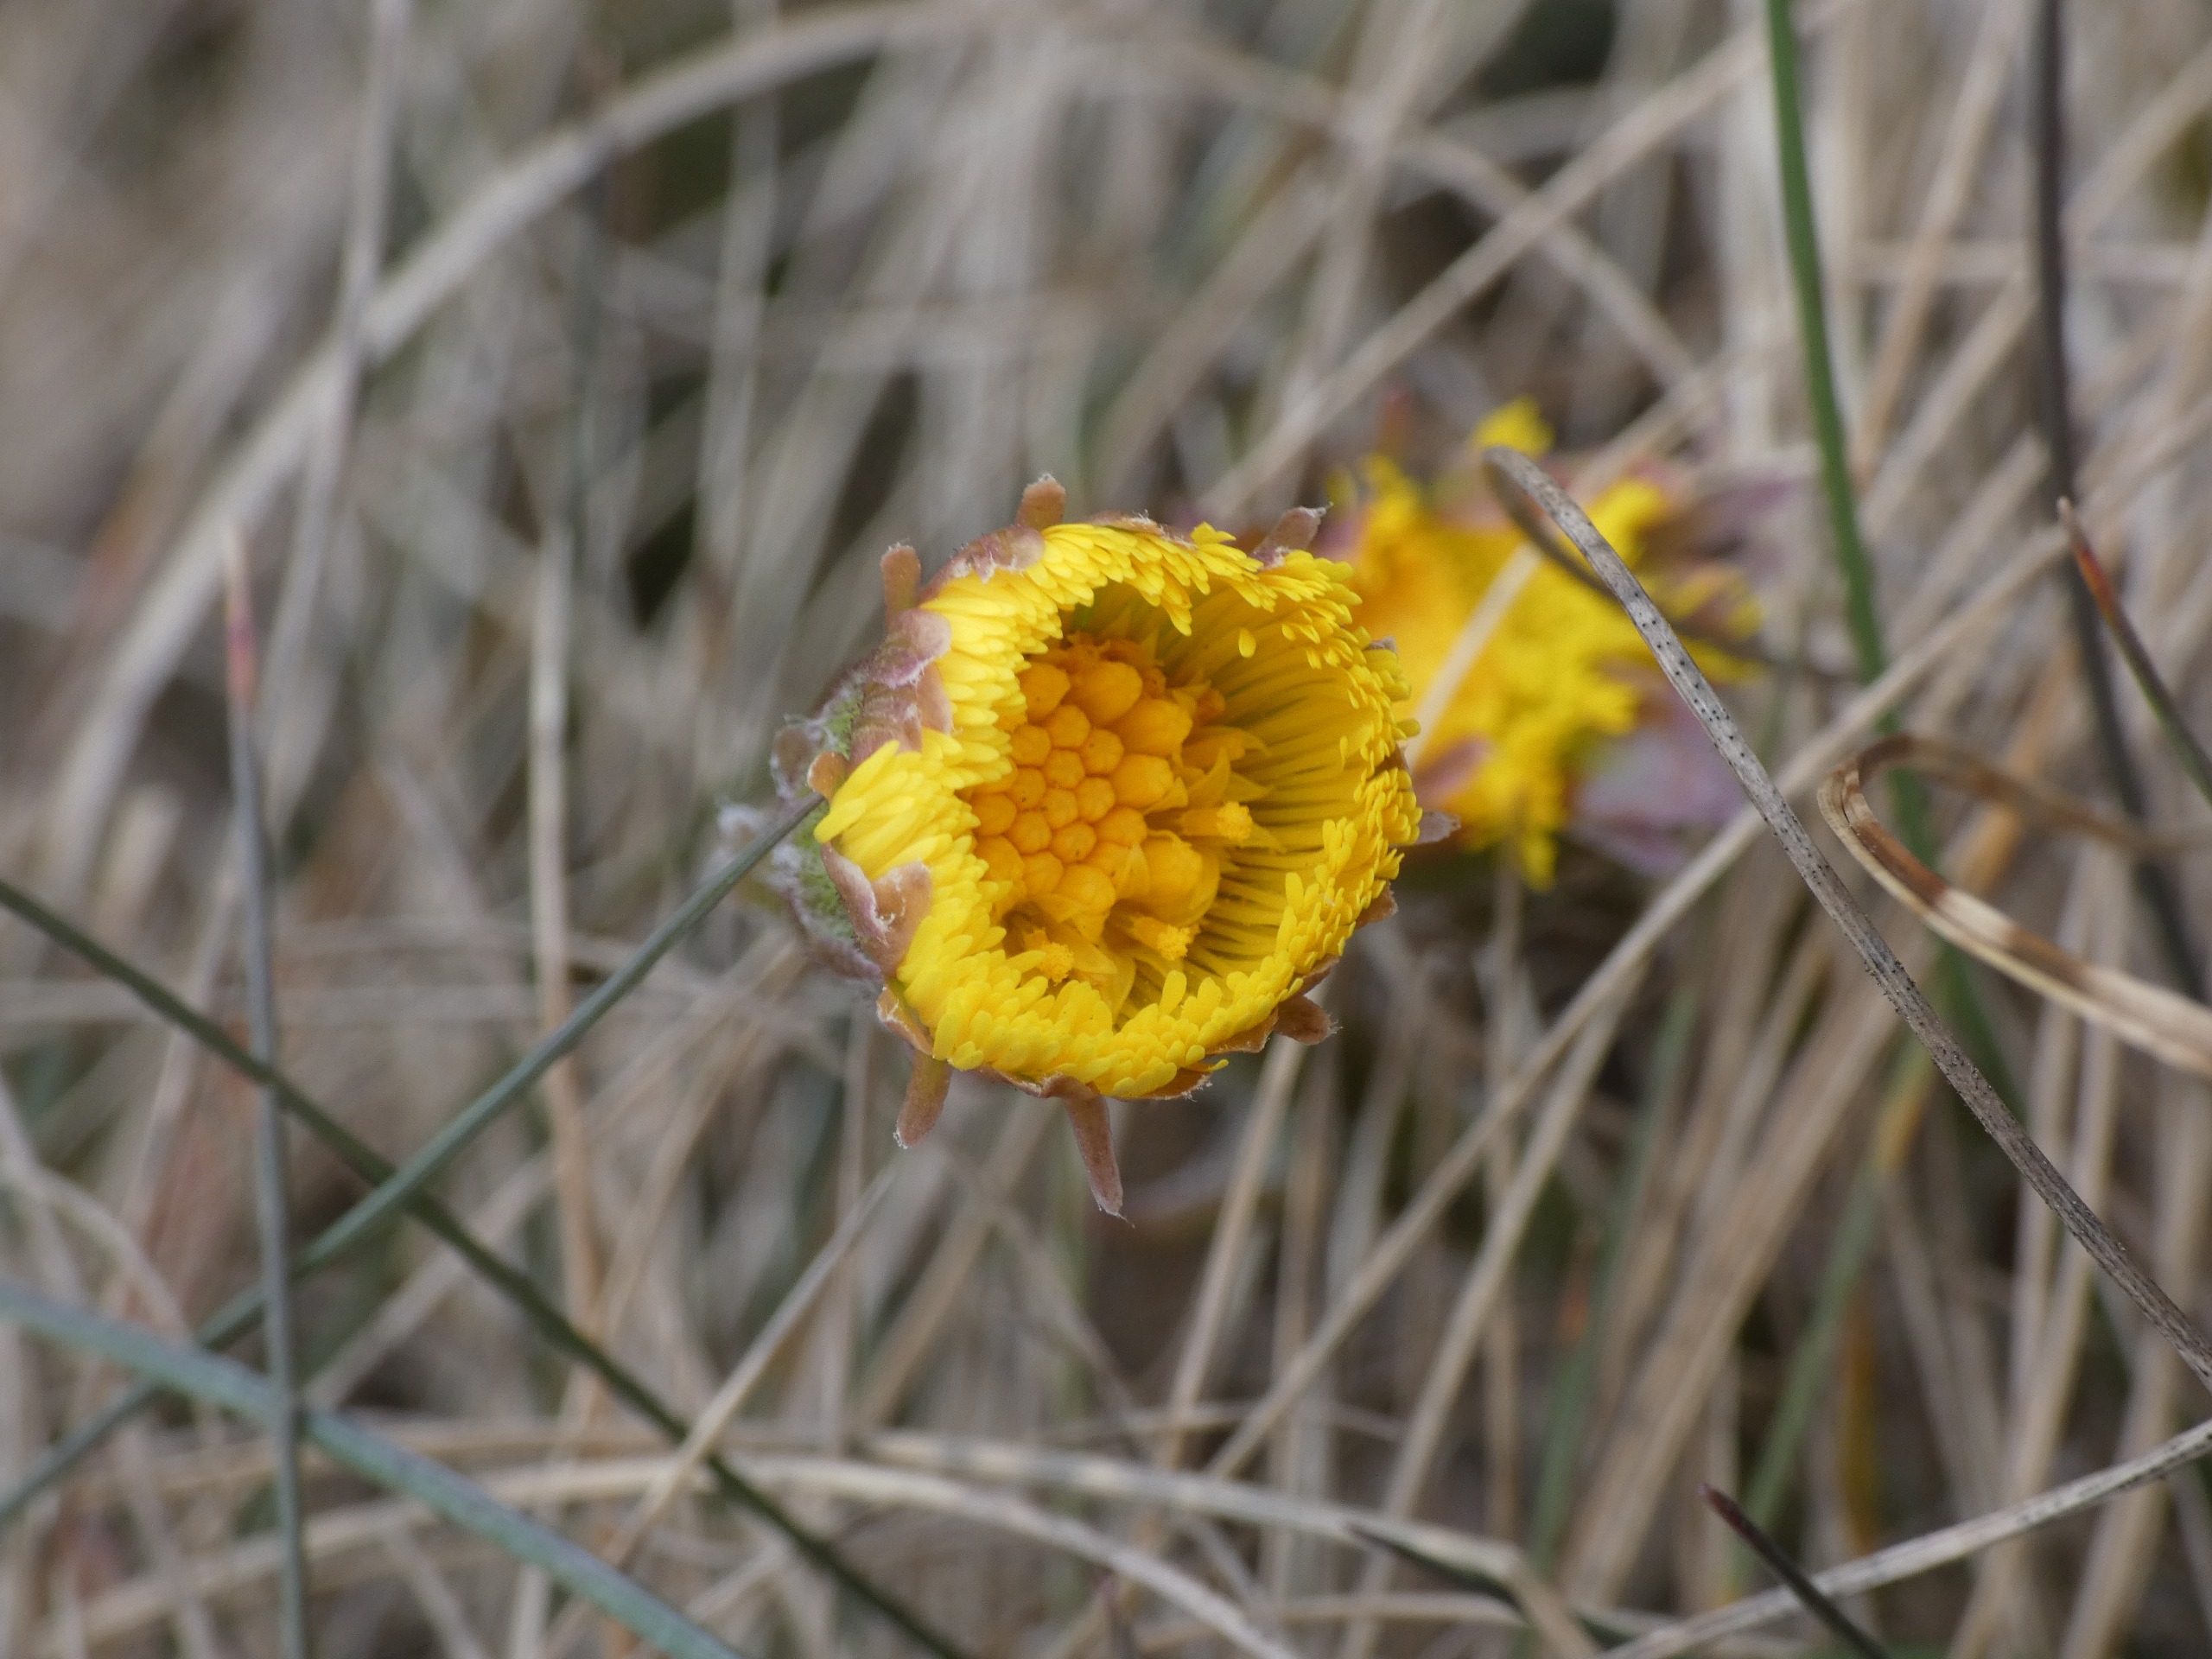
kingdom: Plantae
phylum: Tracheophyta
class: Magnoliopsida
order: Asterales
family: Asteraceae
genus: Tussilago
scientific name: Tussilago farfara
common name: Følfod
